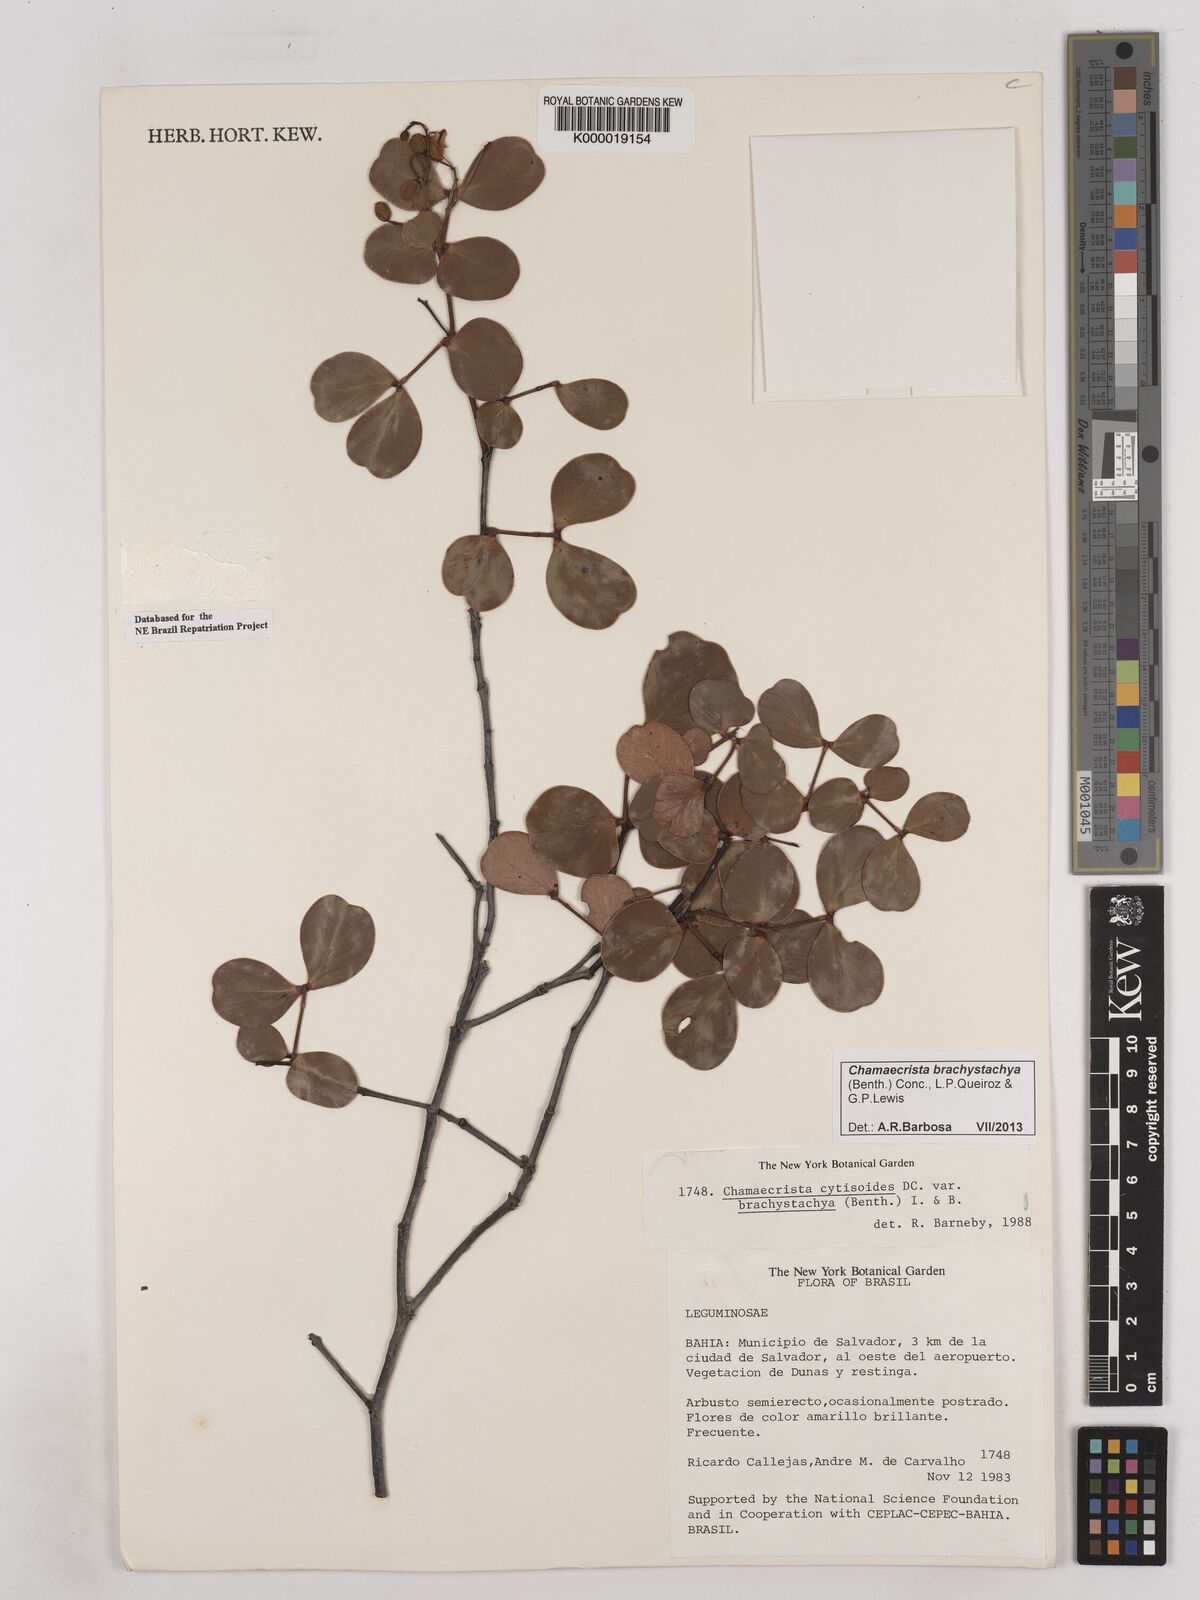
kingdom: Plantae
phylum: Tracheophyta
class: Magnoliopsida
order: Fabales
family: Fabaceae
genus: Chamaecrista
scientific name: Chamaecrista cytisoides
